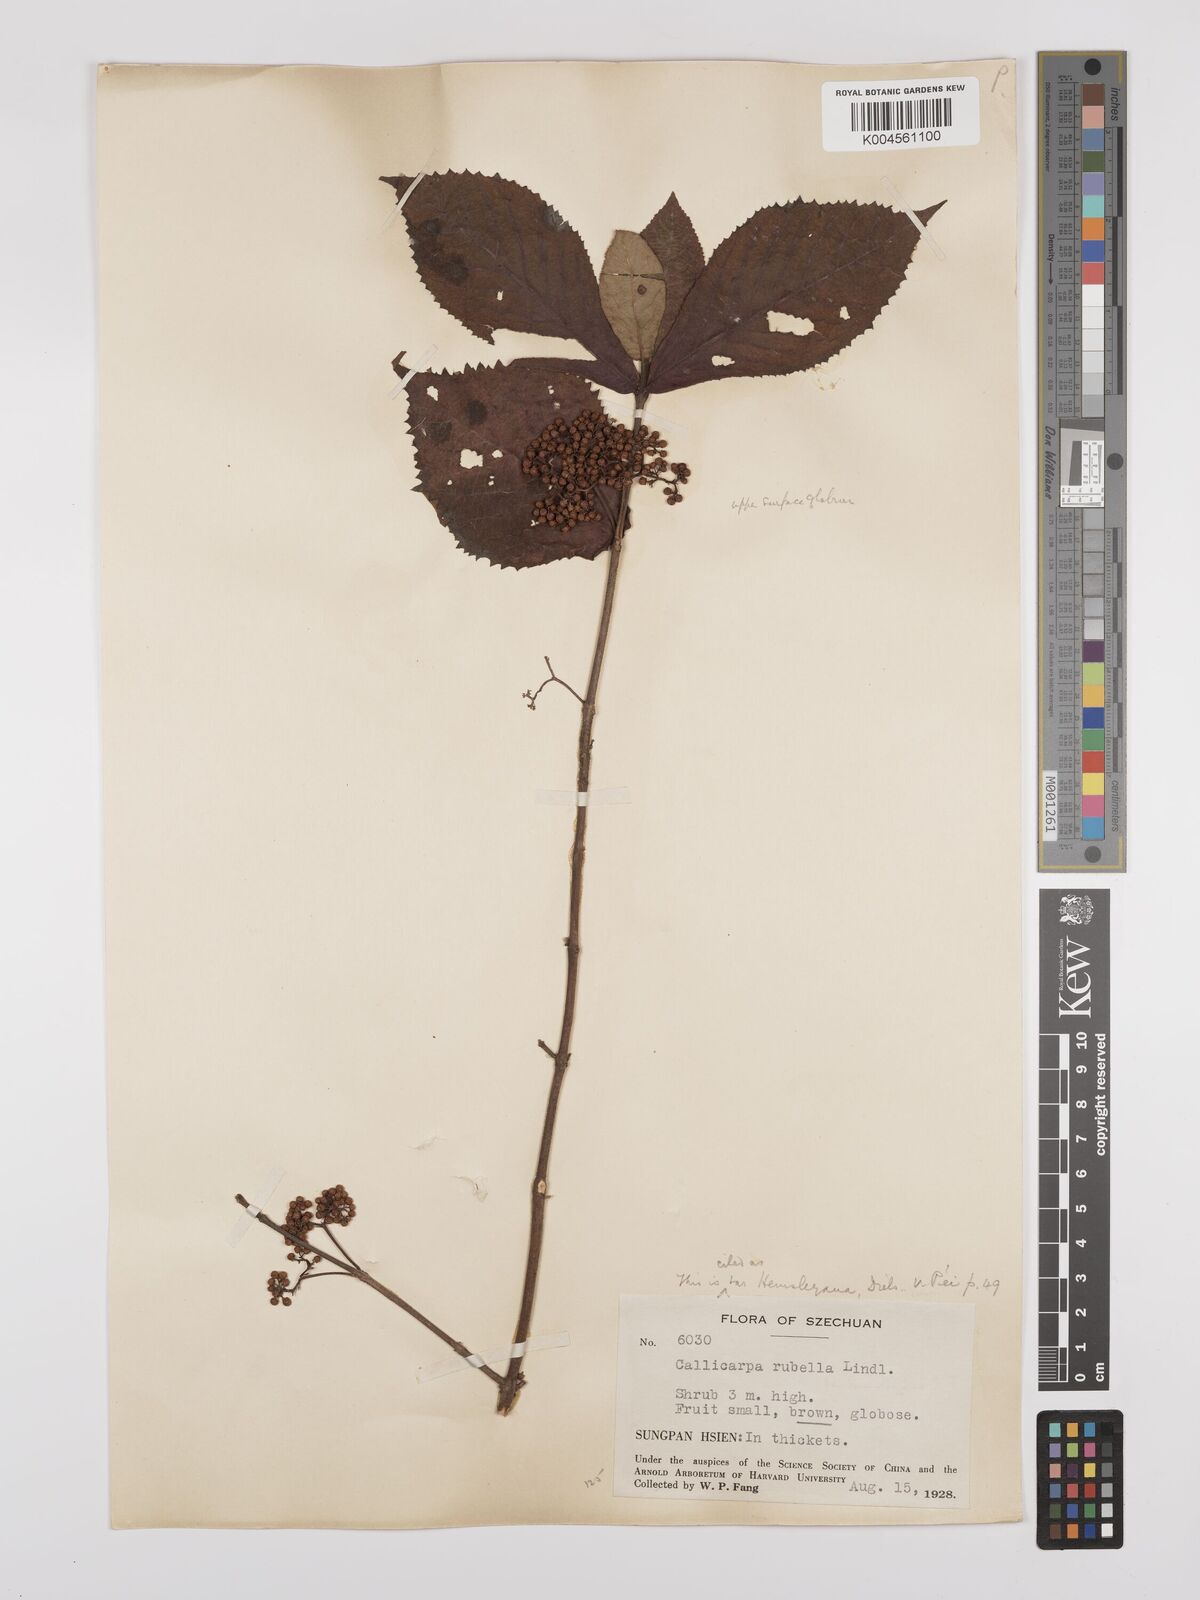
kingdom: Plantae
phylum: Tracheophyta
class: Magnoliopsida
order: Lamiales
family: Lamiaceae
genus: Callicarpa
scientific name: Callicarpa rubella
